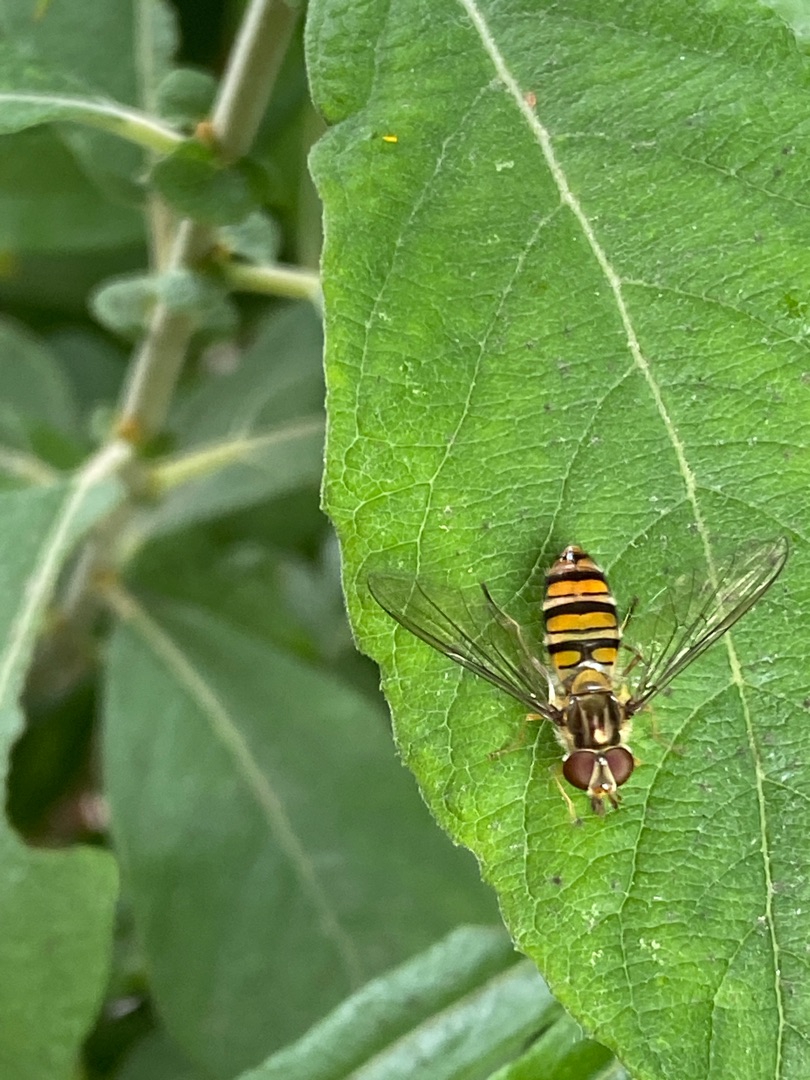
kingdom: Animalia
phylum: Arthropoda
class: Insecta
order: Diptera
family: Syrphidae
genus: Episyrphus
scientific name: Episyrphus balteatus
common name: Dobbeltbåndet svirreflue
